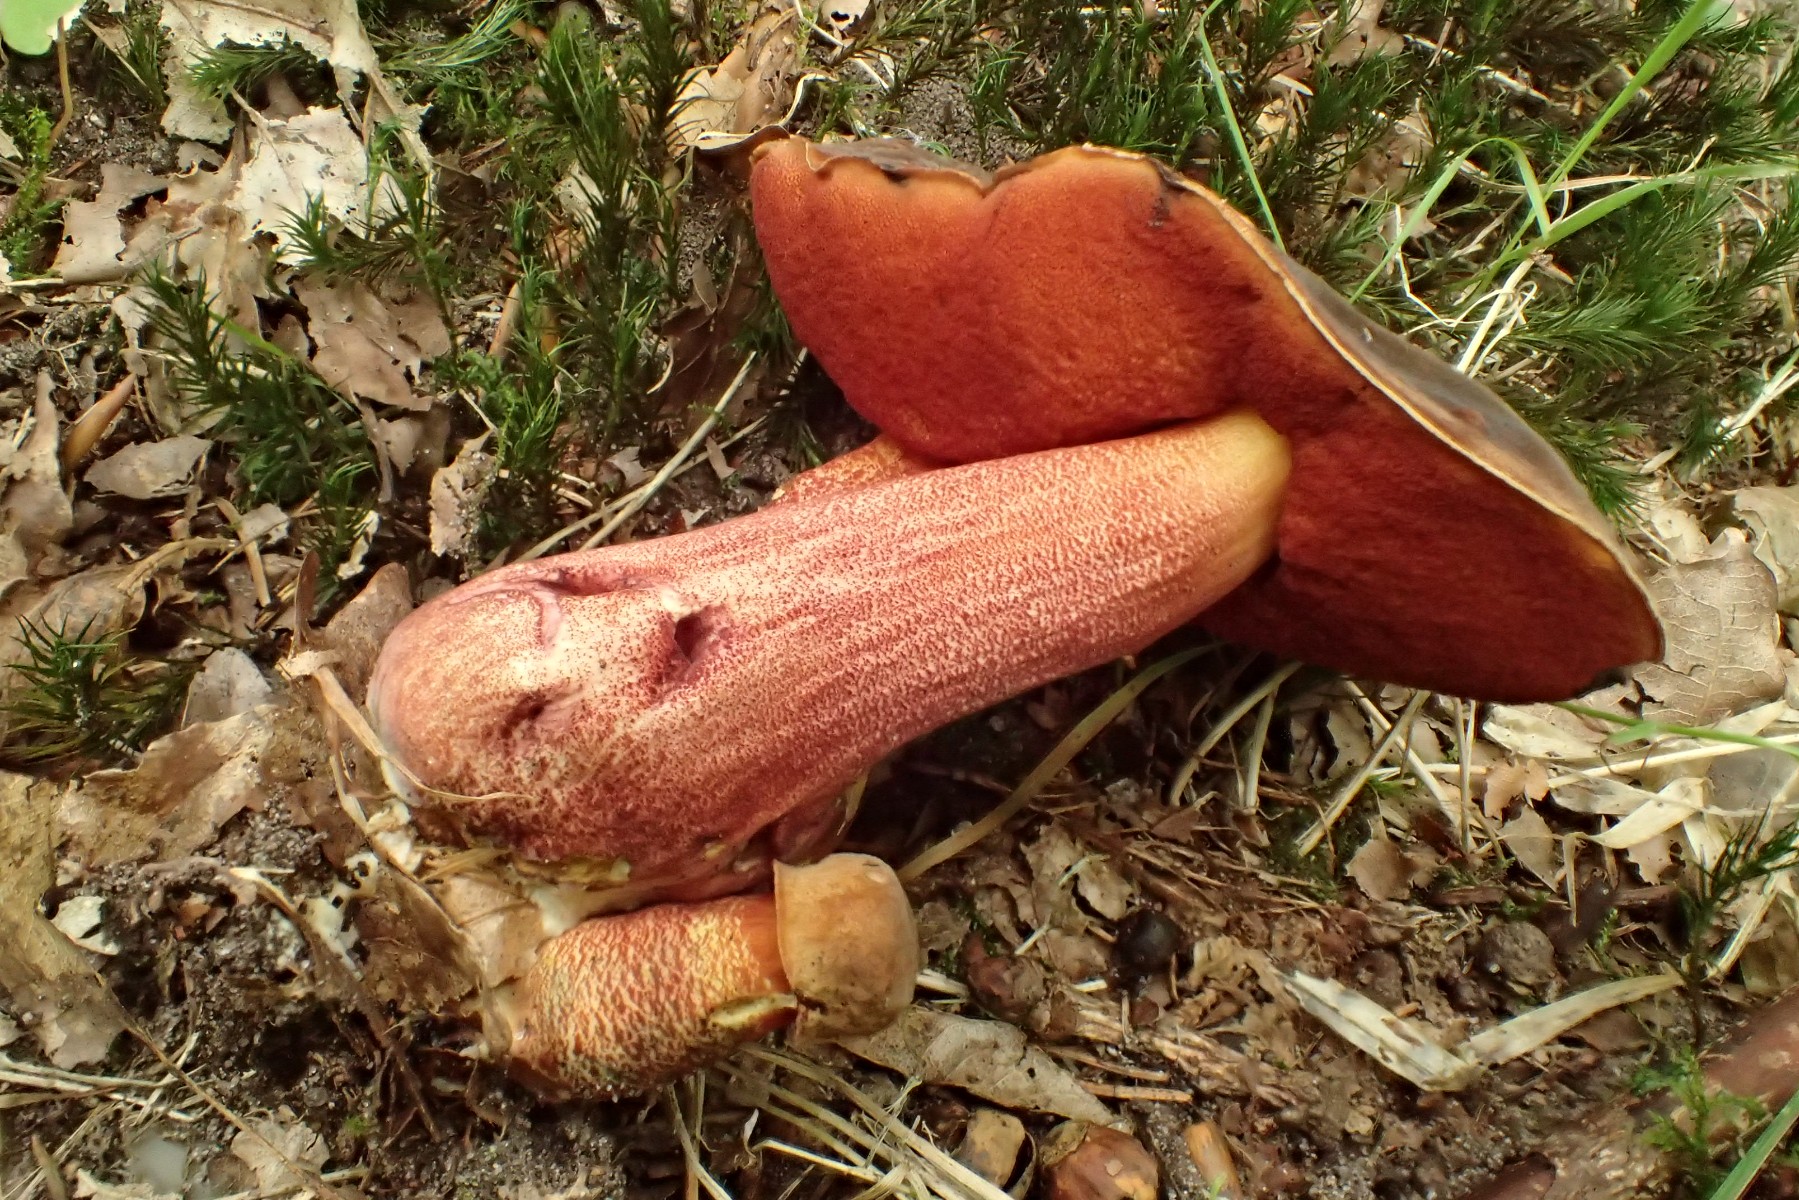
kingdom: Fungi
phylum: Basidiomycota
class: Agaricomycetes
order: Boletales
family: Boletaceae
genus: Neoboletus
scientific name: Neoboletus erythropus
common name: punktstokket indigorørhat
